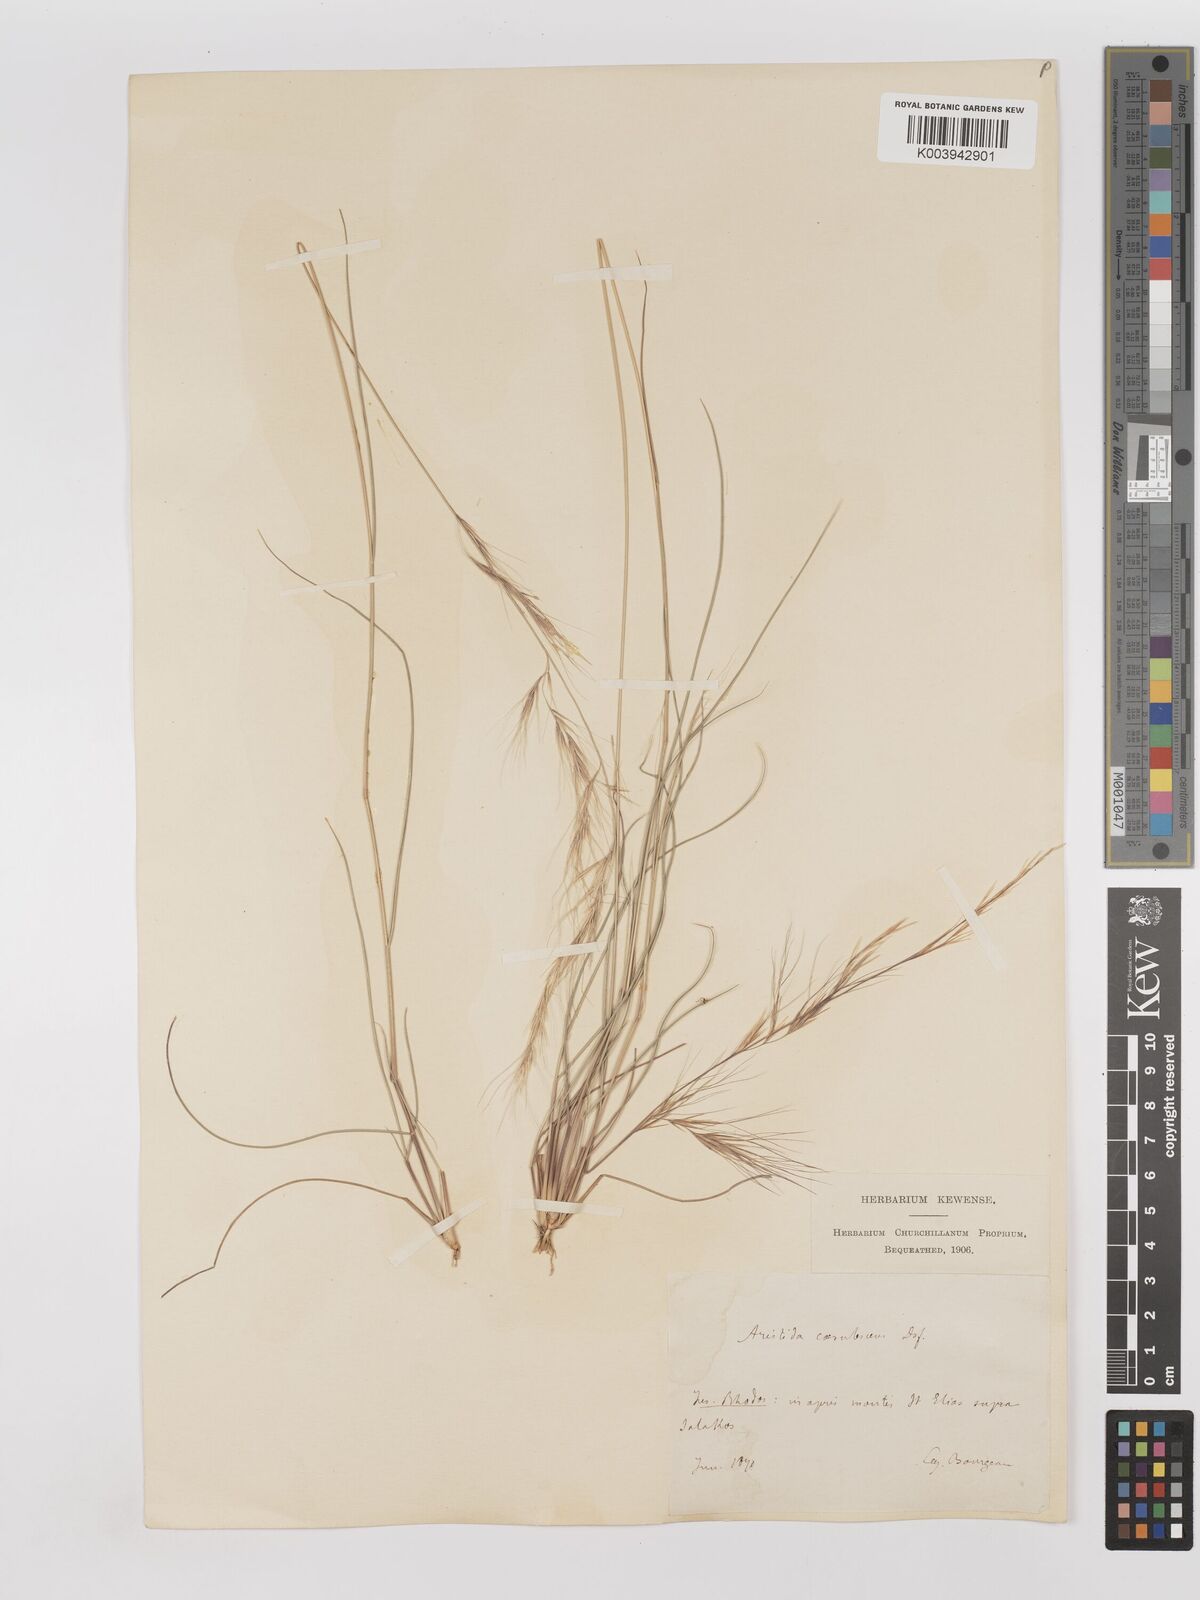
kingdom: Plantae
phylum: Tracheophyta
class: Liliopsida
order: Poales
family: Poaceae
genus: Aristida
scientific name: Aristida adscensionis
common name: Sixweeks threeawn
